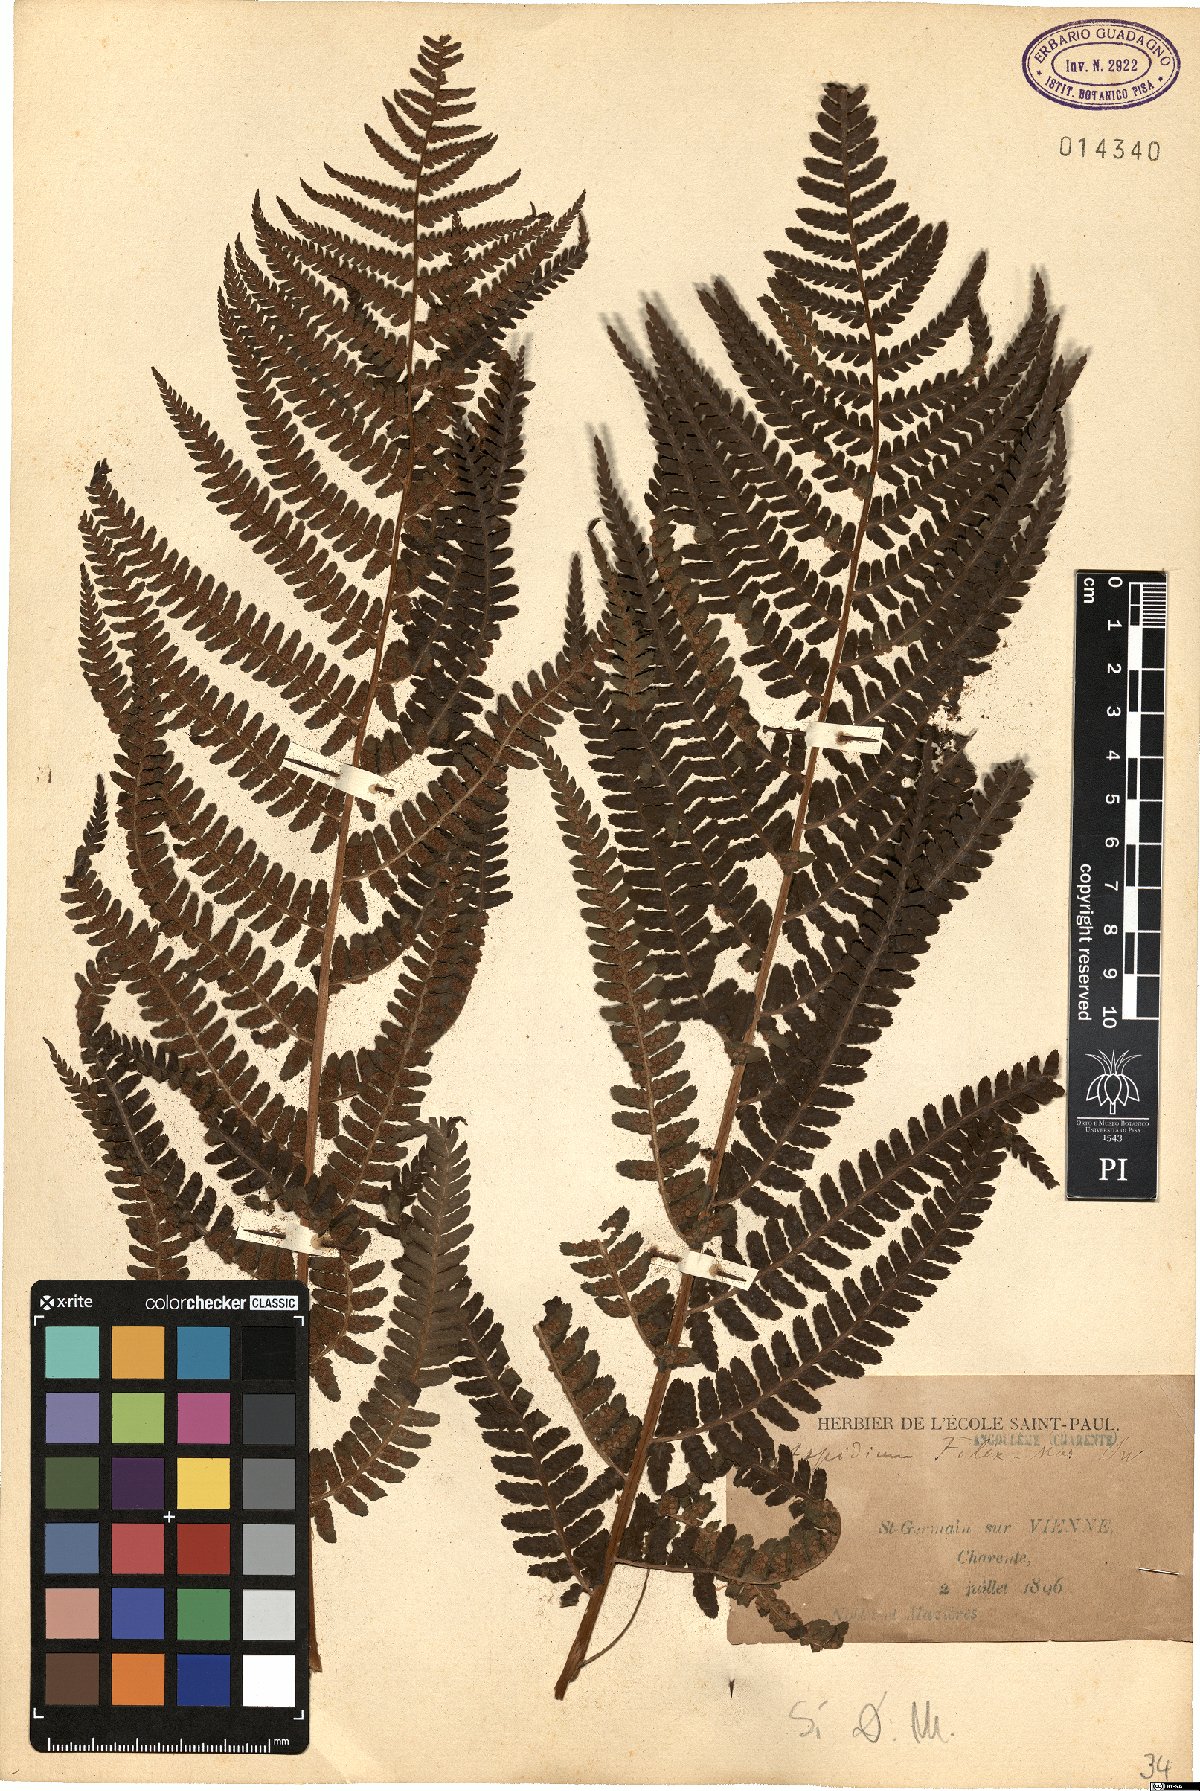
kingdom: Plantae
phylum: Tracheophyta
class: Polypodiopsida
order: Polypodiales
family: Dryopteridaceae
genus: Dryopteris
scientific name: Dryopteris filix-mas
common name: Male fern
